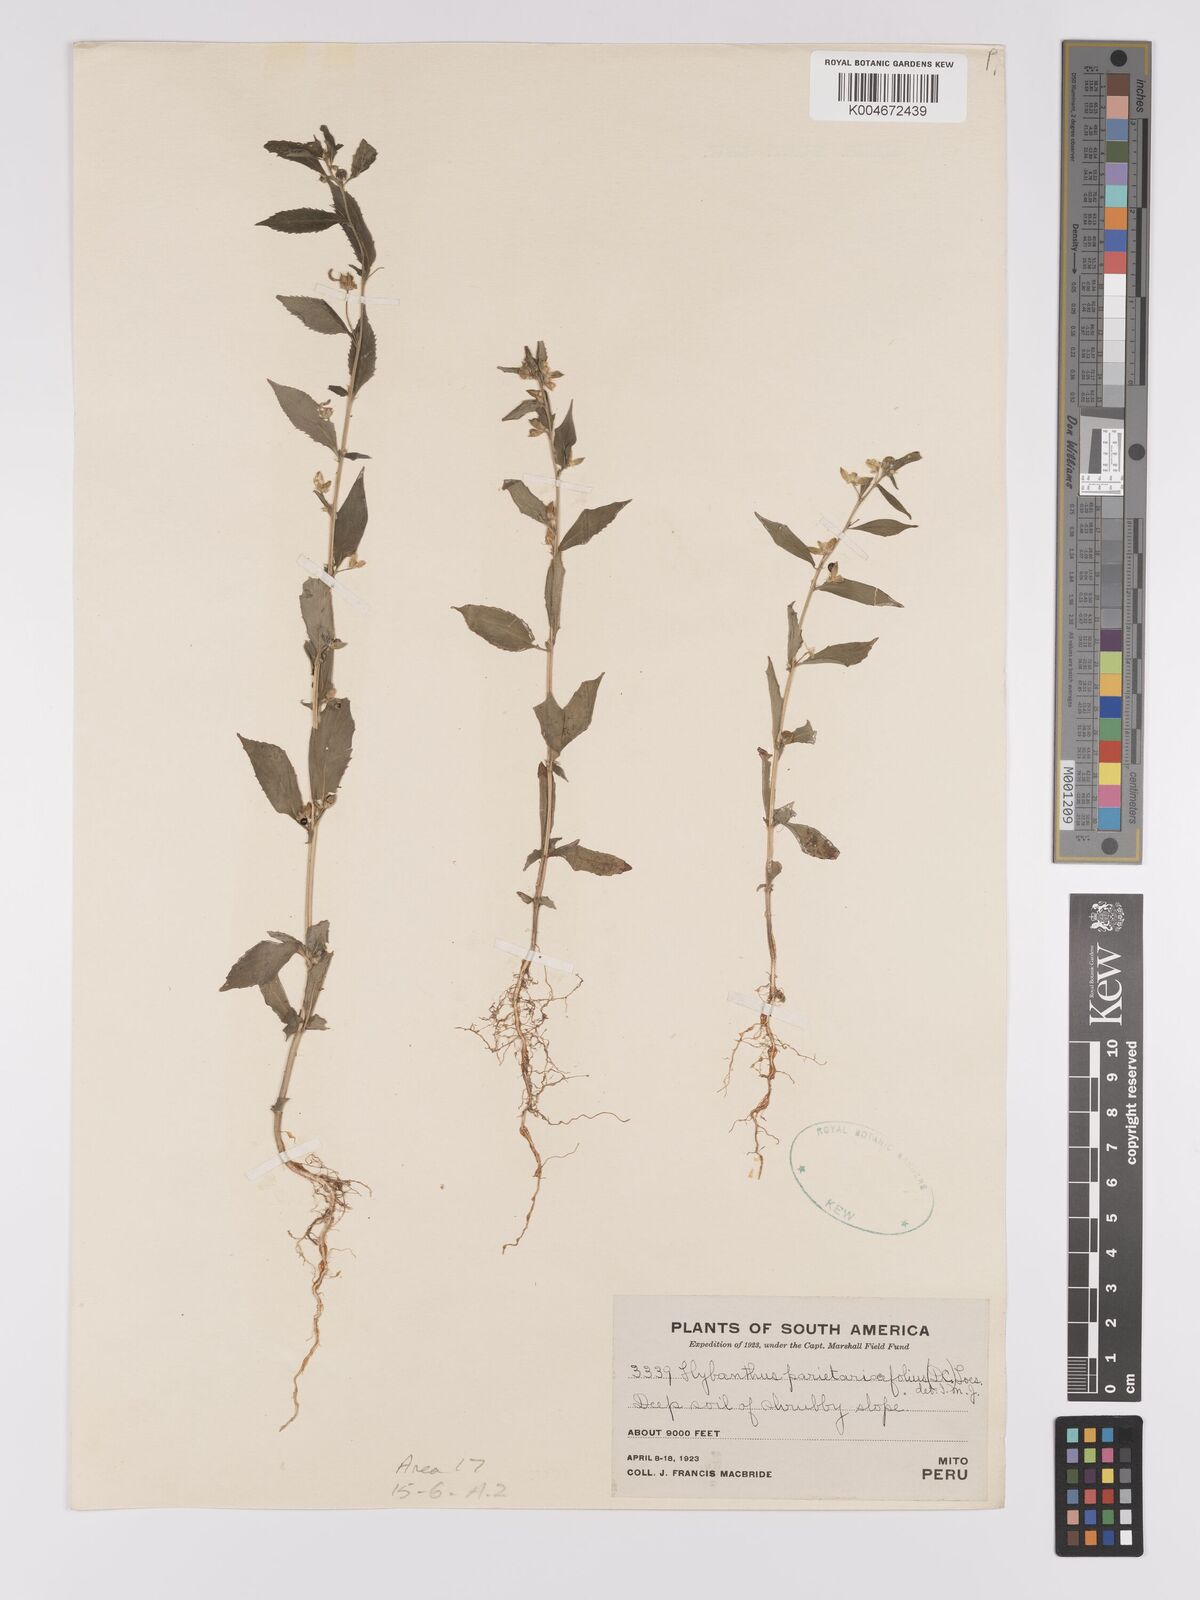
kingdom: Plantae
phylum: Tracheophyta
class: Magnoliopsida
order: Malpighiales
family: Violaceae
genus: Pombalia
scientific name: Pombalia oppositifolia
